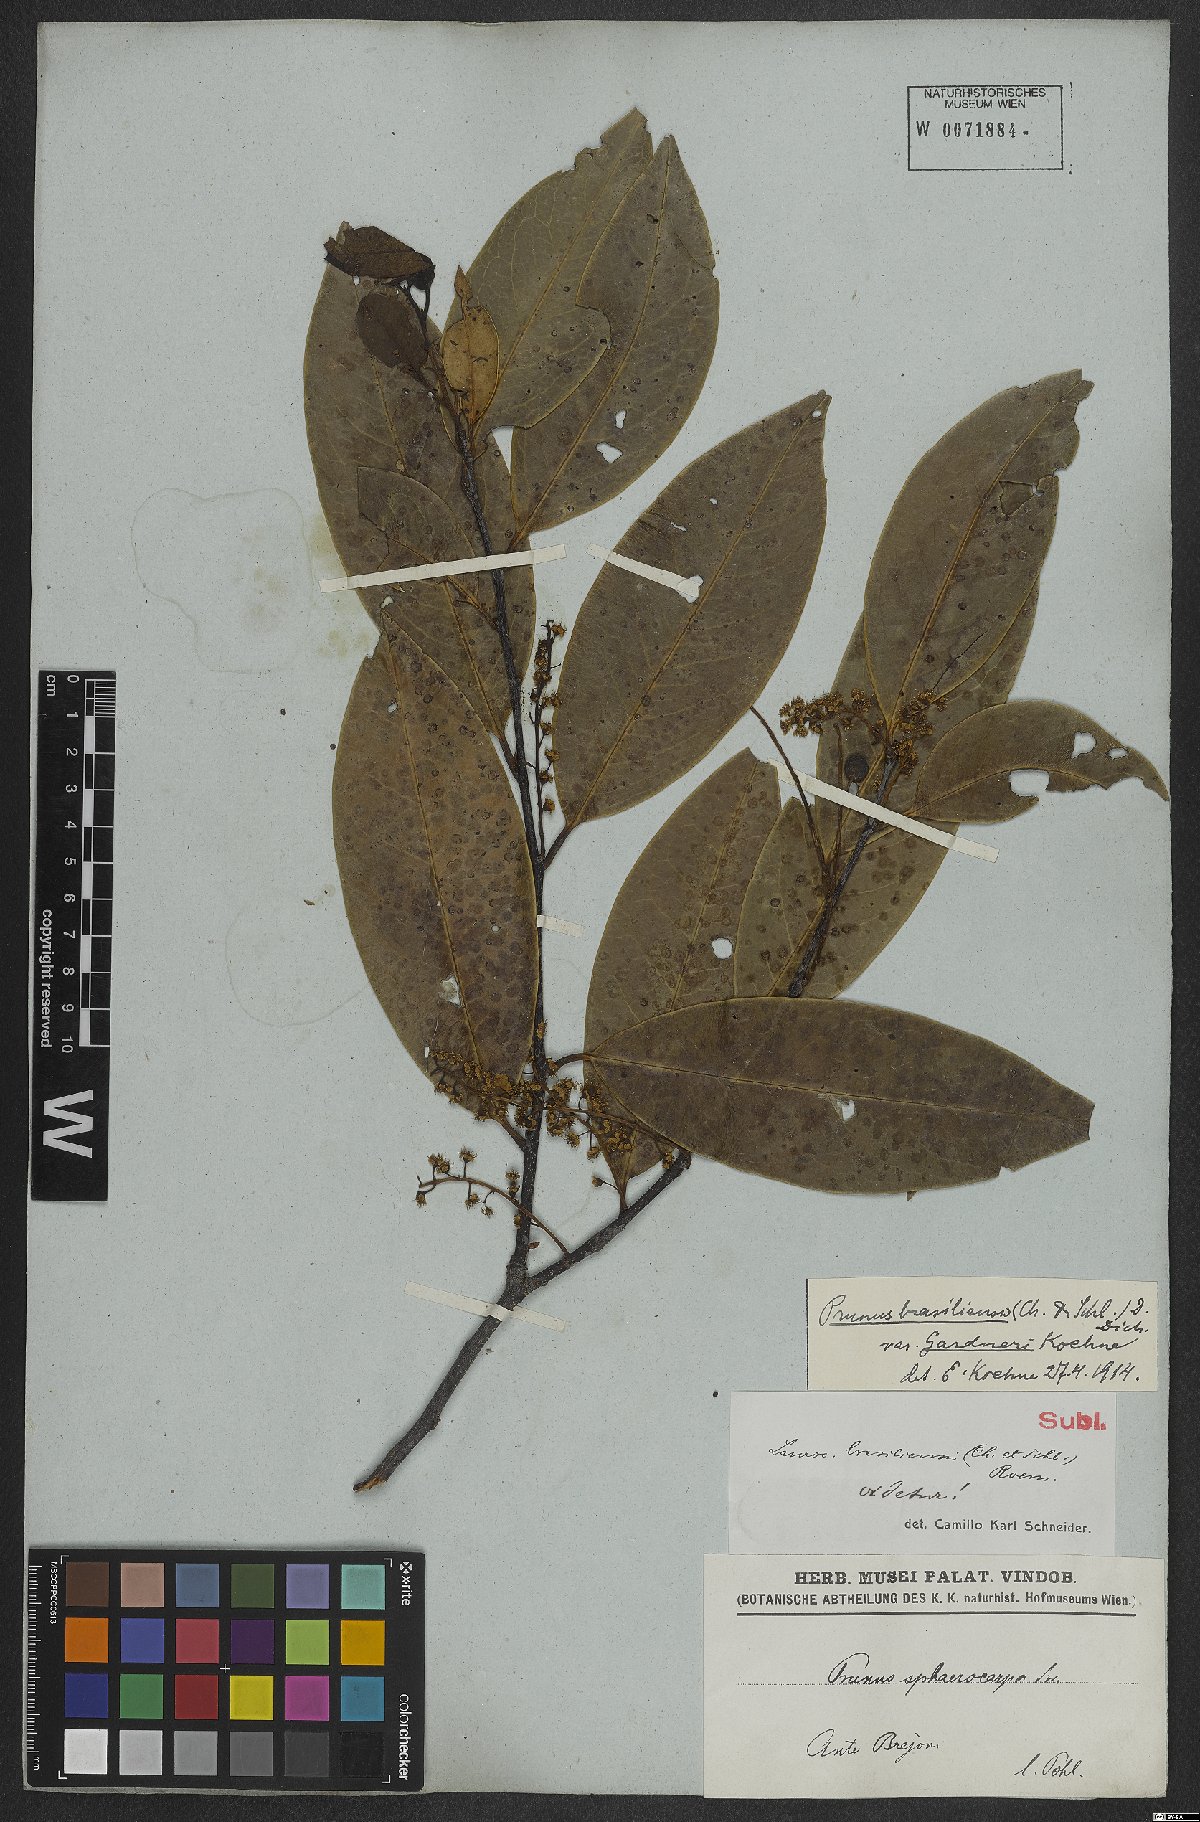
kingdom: Plantae
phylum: Tracheophyta
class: Magnoliopsida
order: Rosales
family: Rosaceae
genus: Prunus
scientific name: Prunus brasiliensis
